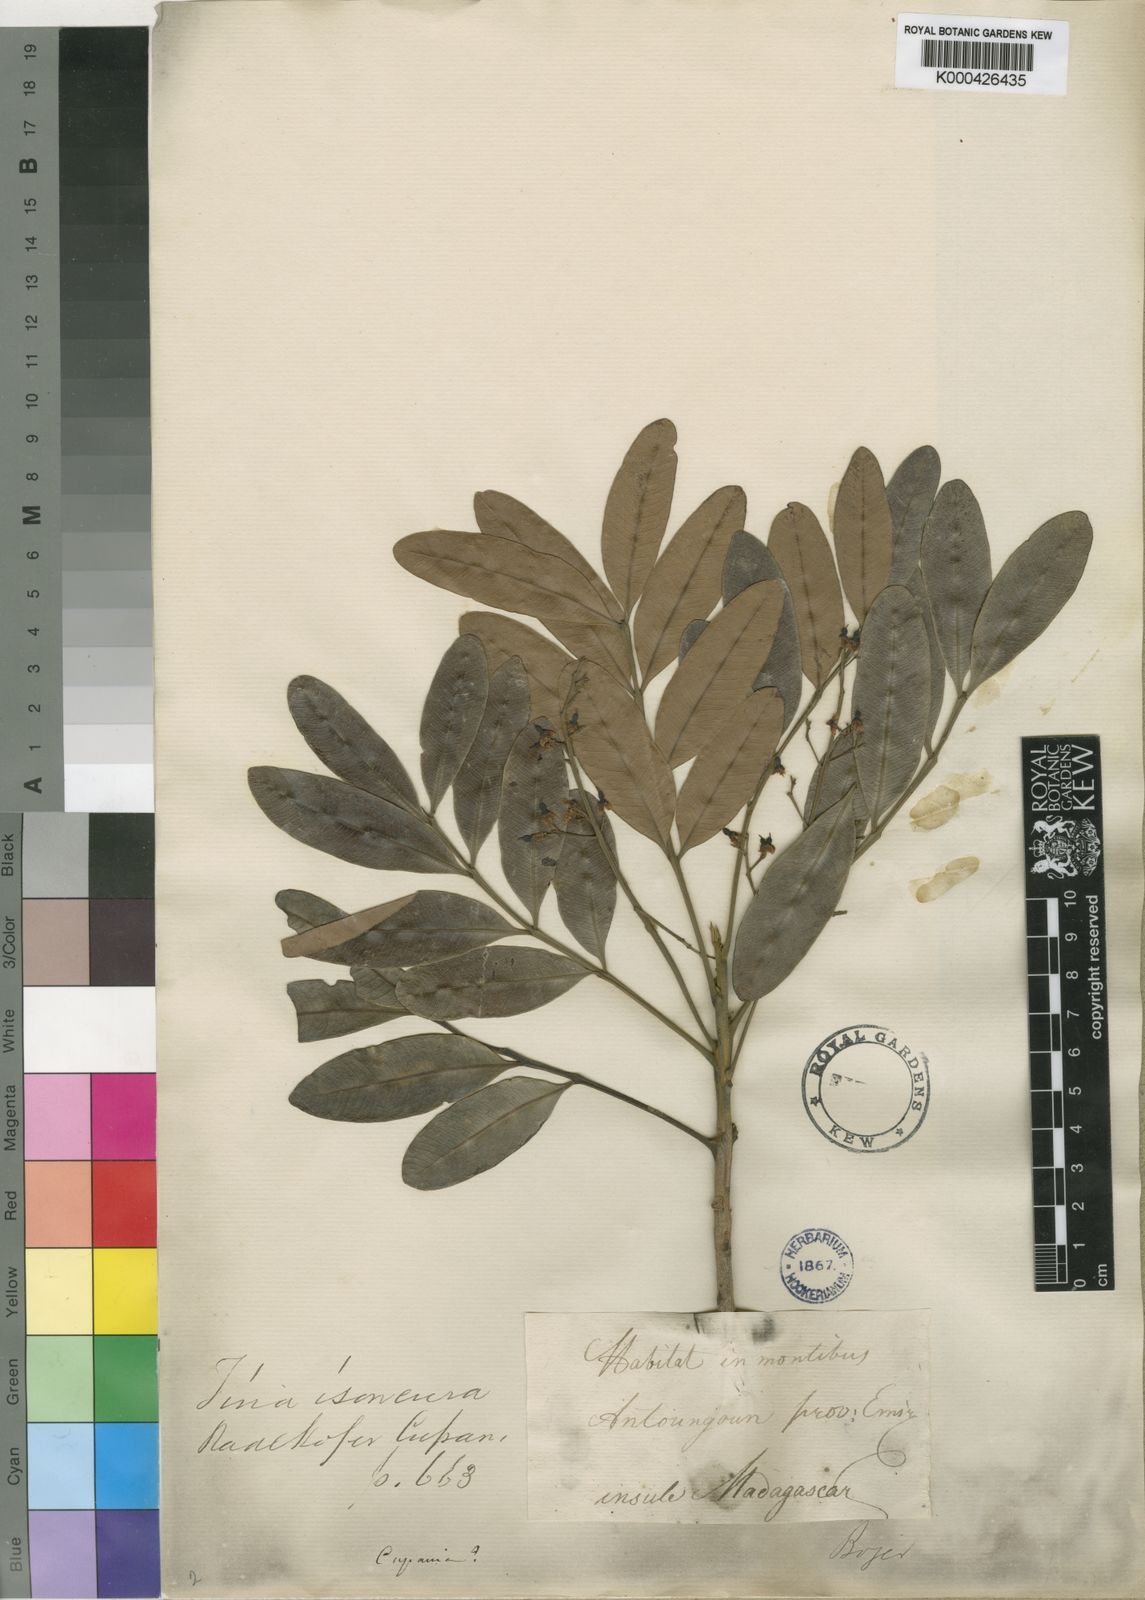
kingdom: Plantae
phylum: Tracheophyta
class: Magnoliopsida
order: Sapindales
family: Sapindaceae
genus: Tina
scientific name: Tina isoneura
